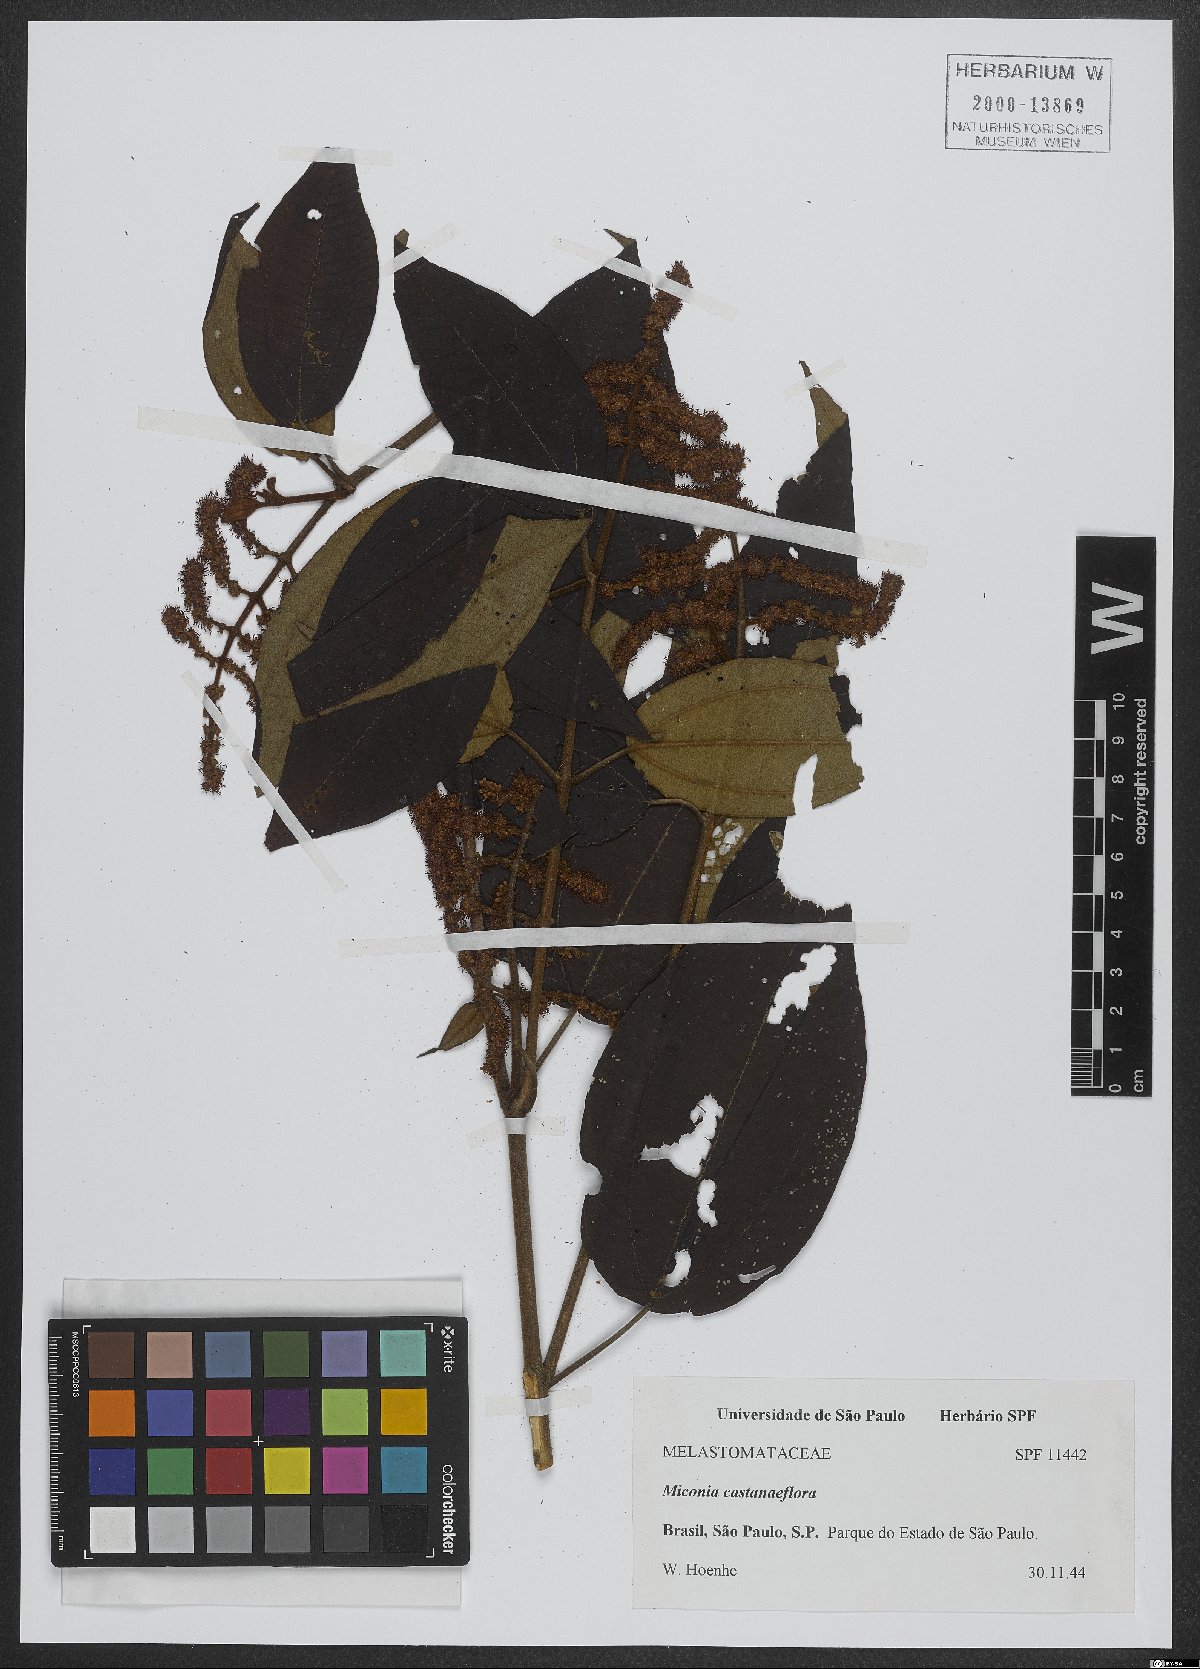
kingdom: Plantae
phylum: Tracheophyta
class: Magnoliopsida
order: Myrtales
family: Melastomataceae
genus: Miconia
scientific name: Miconia castaneifolia
